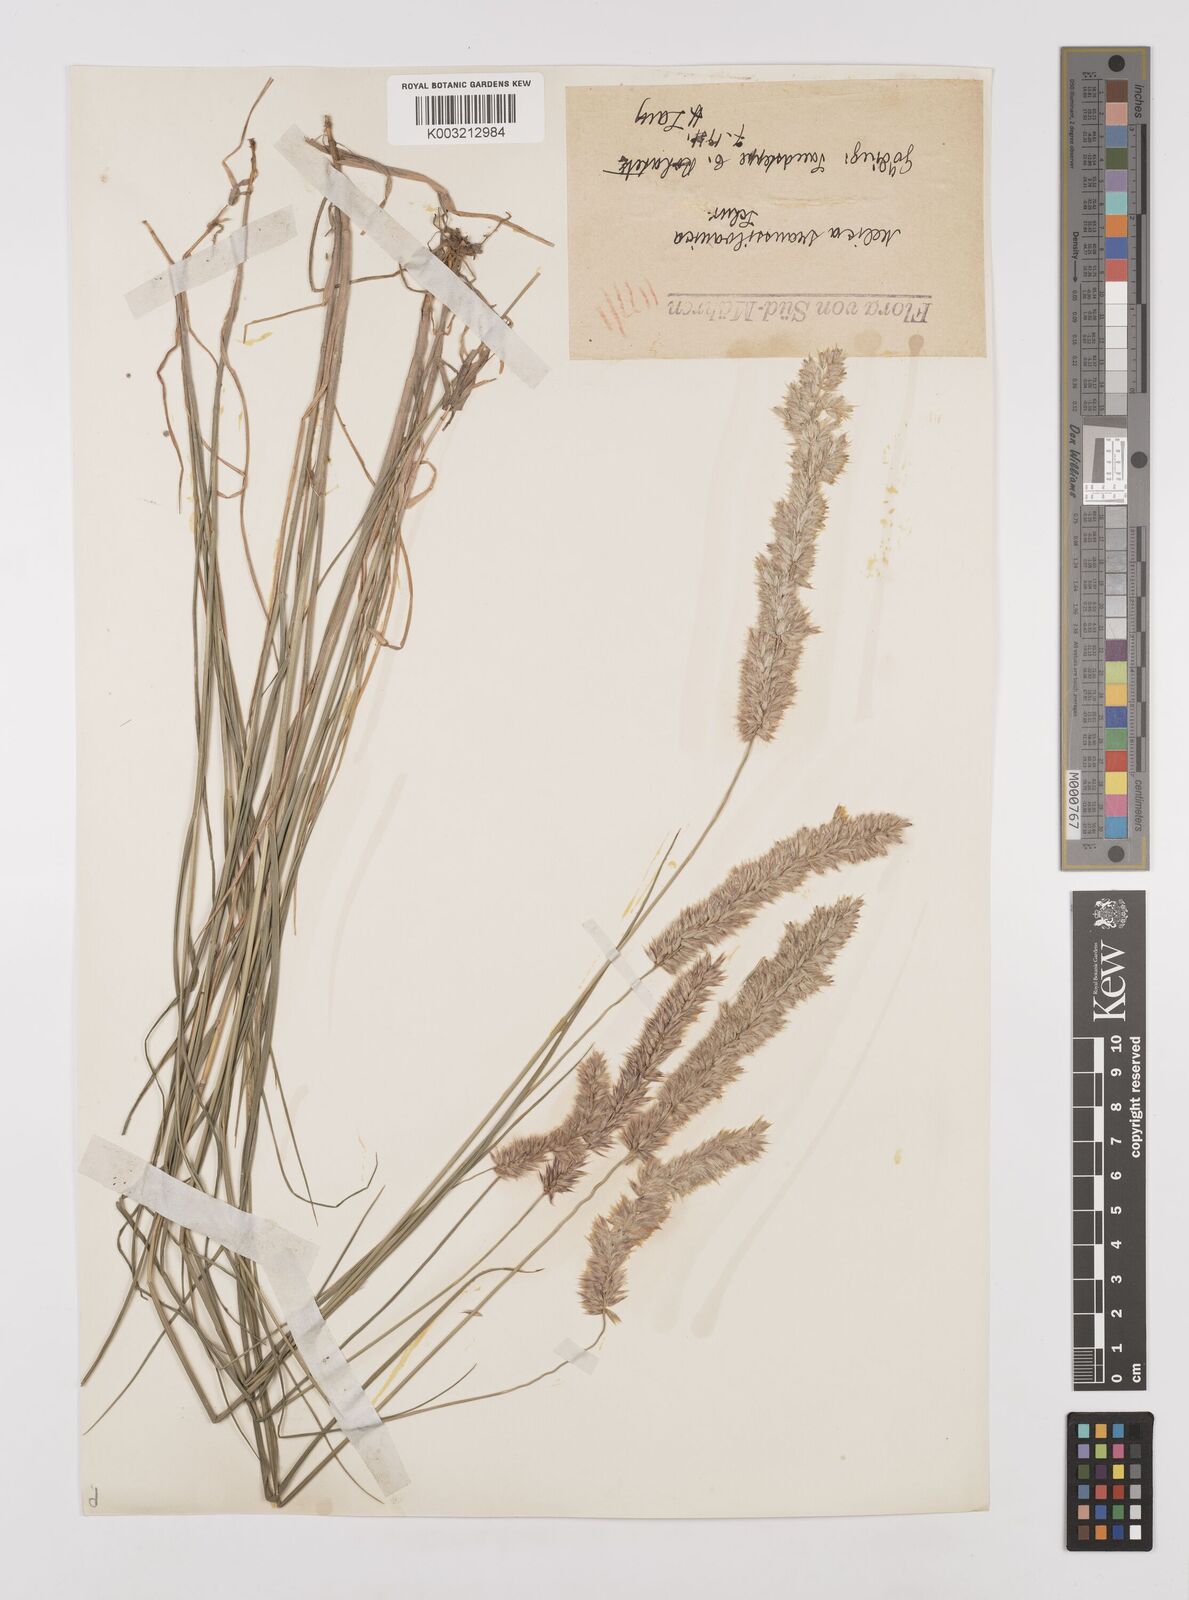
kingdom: Plantae
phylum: Tracheophyta
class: Liliopsida
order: Poales
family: Poaceae
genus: Melica
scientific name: Melica transsilvanica
